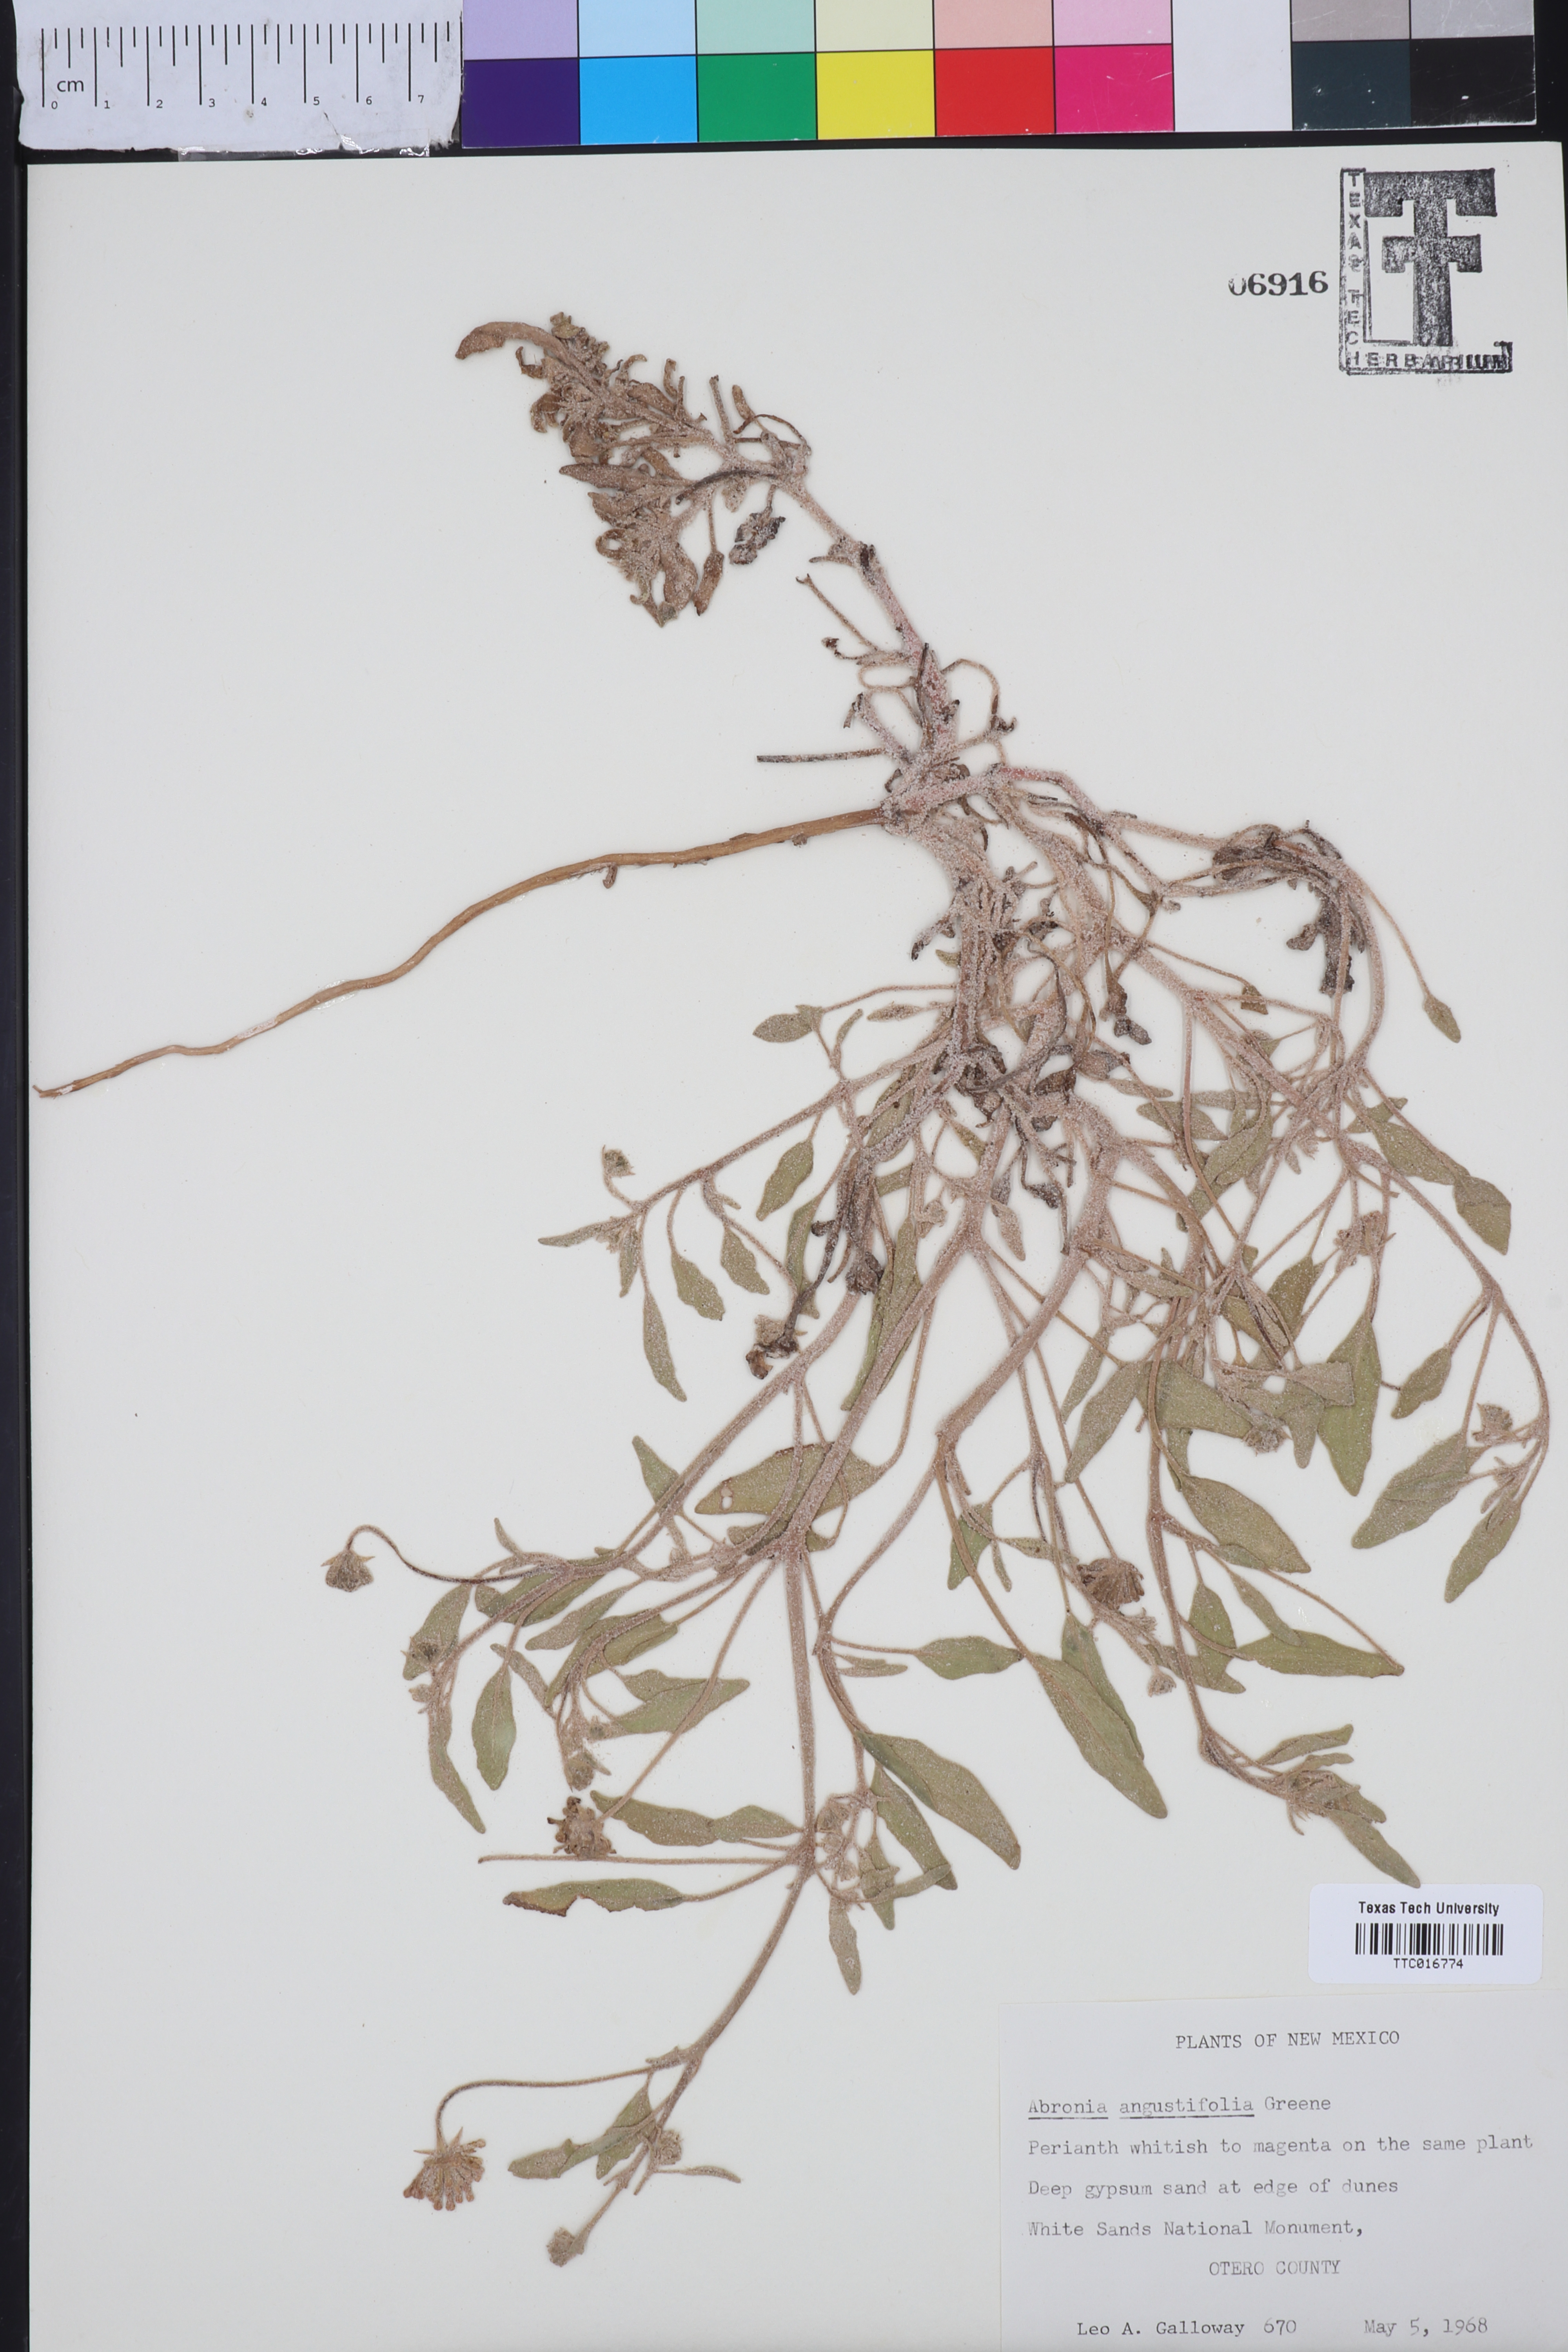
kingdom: Plantae
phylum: Tracheophyta
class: Magnoliopsida
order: Caryophyllales
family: Nyctaginaceae
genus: Abronia
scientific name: Abronia angustifolia
